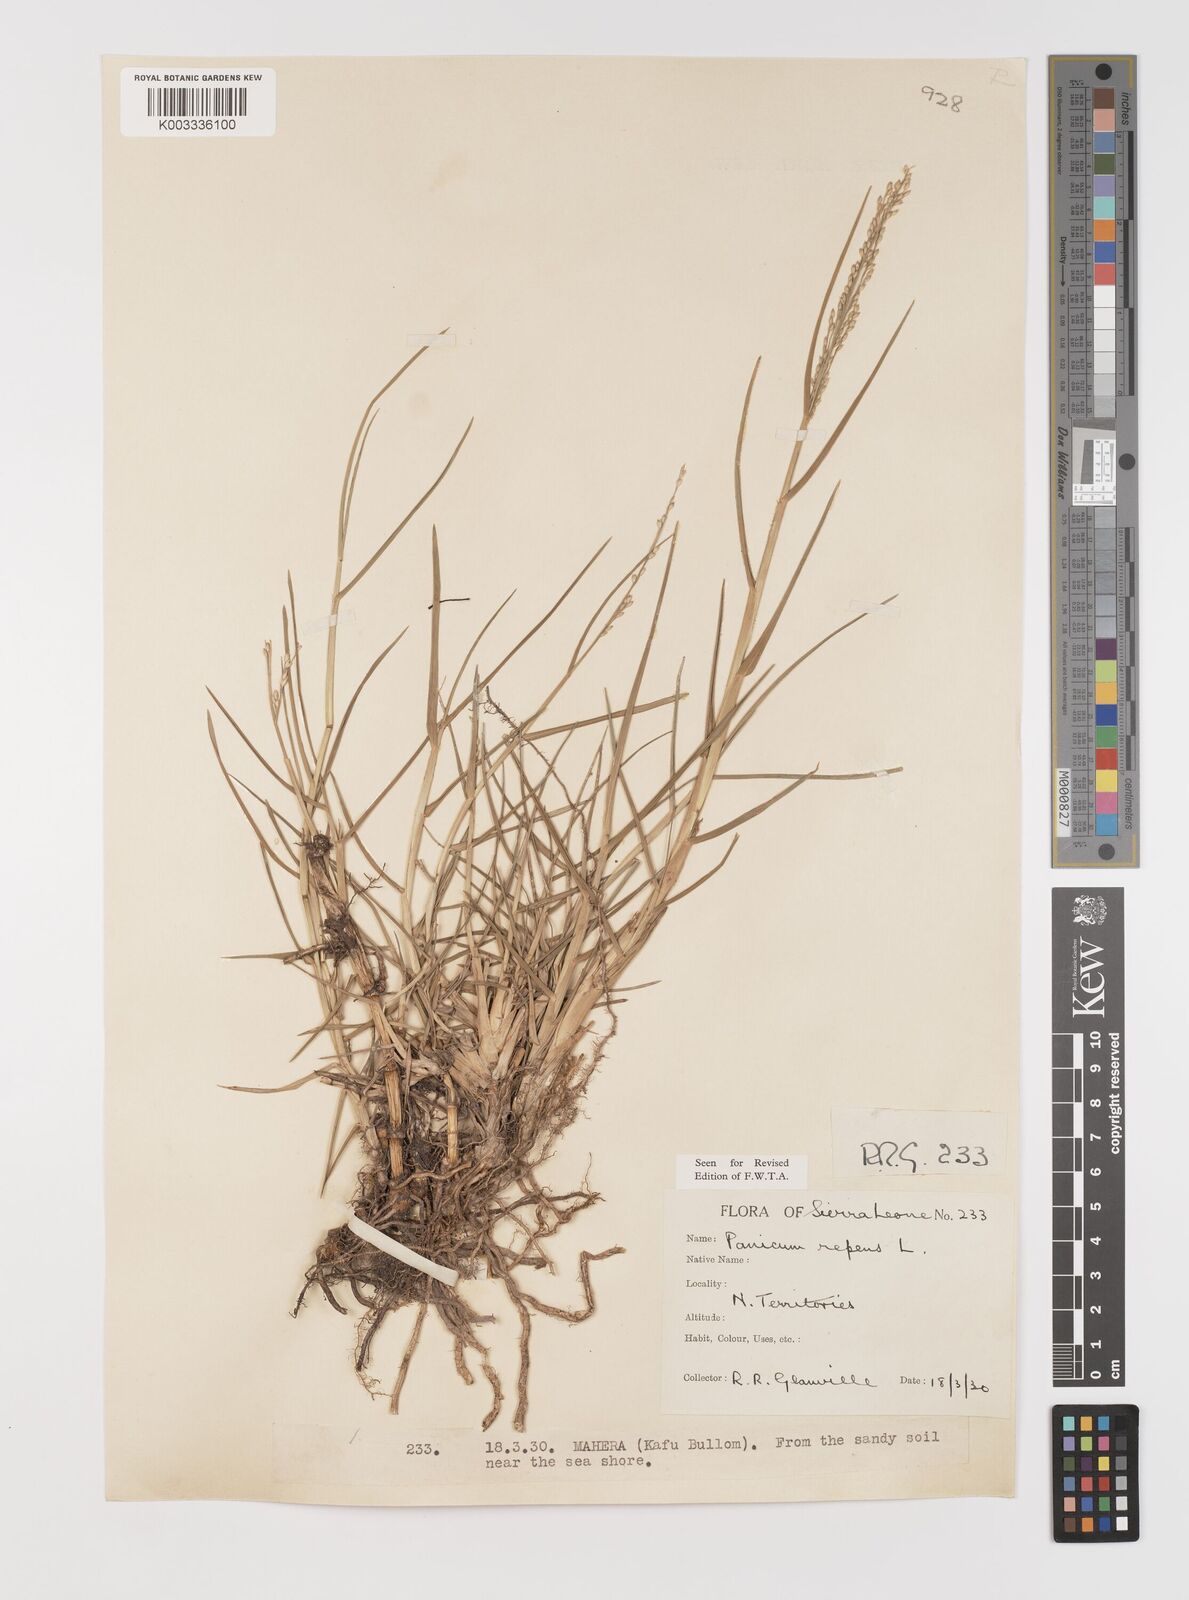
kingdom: Plantae
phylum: Tracheophyta
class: Liliopsida
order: Poales
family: Poaceae
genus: Panicum
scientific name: Panicum repens
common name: Torpedo grass
